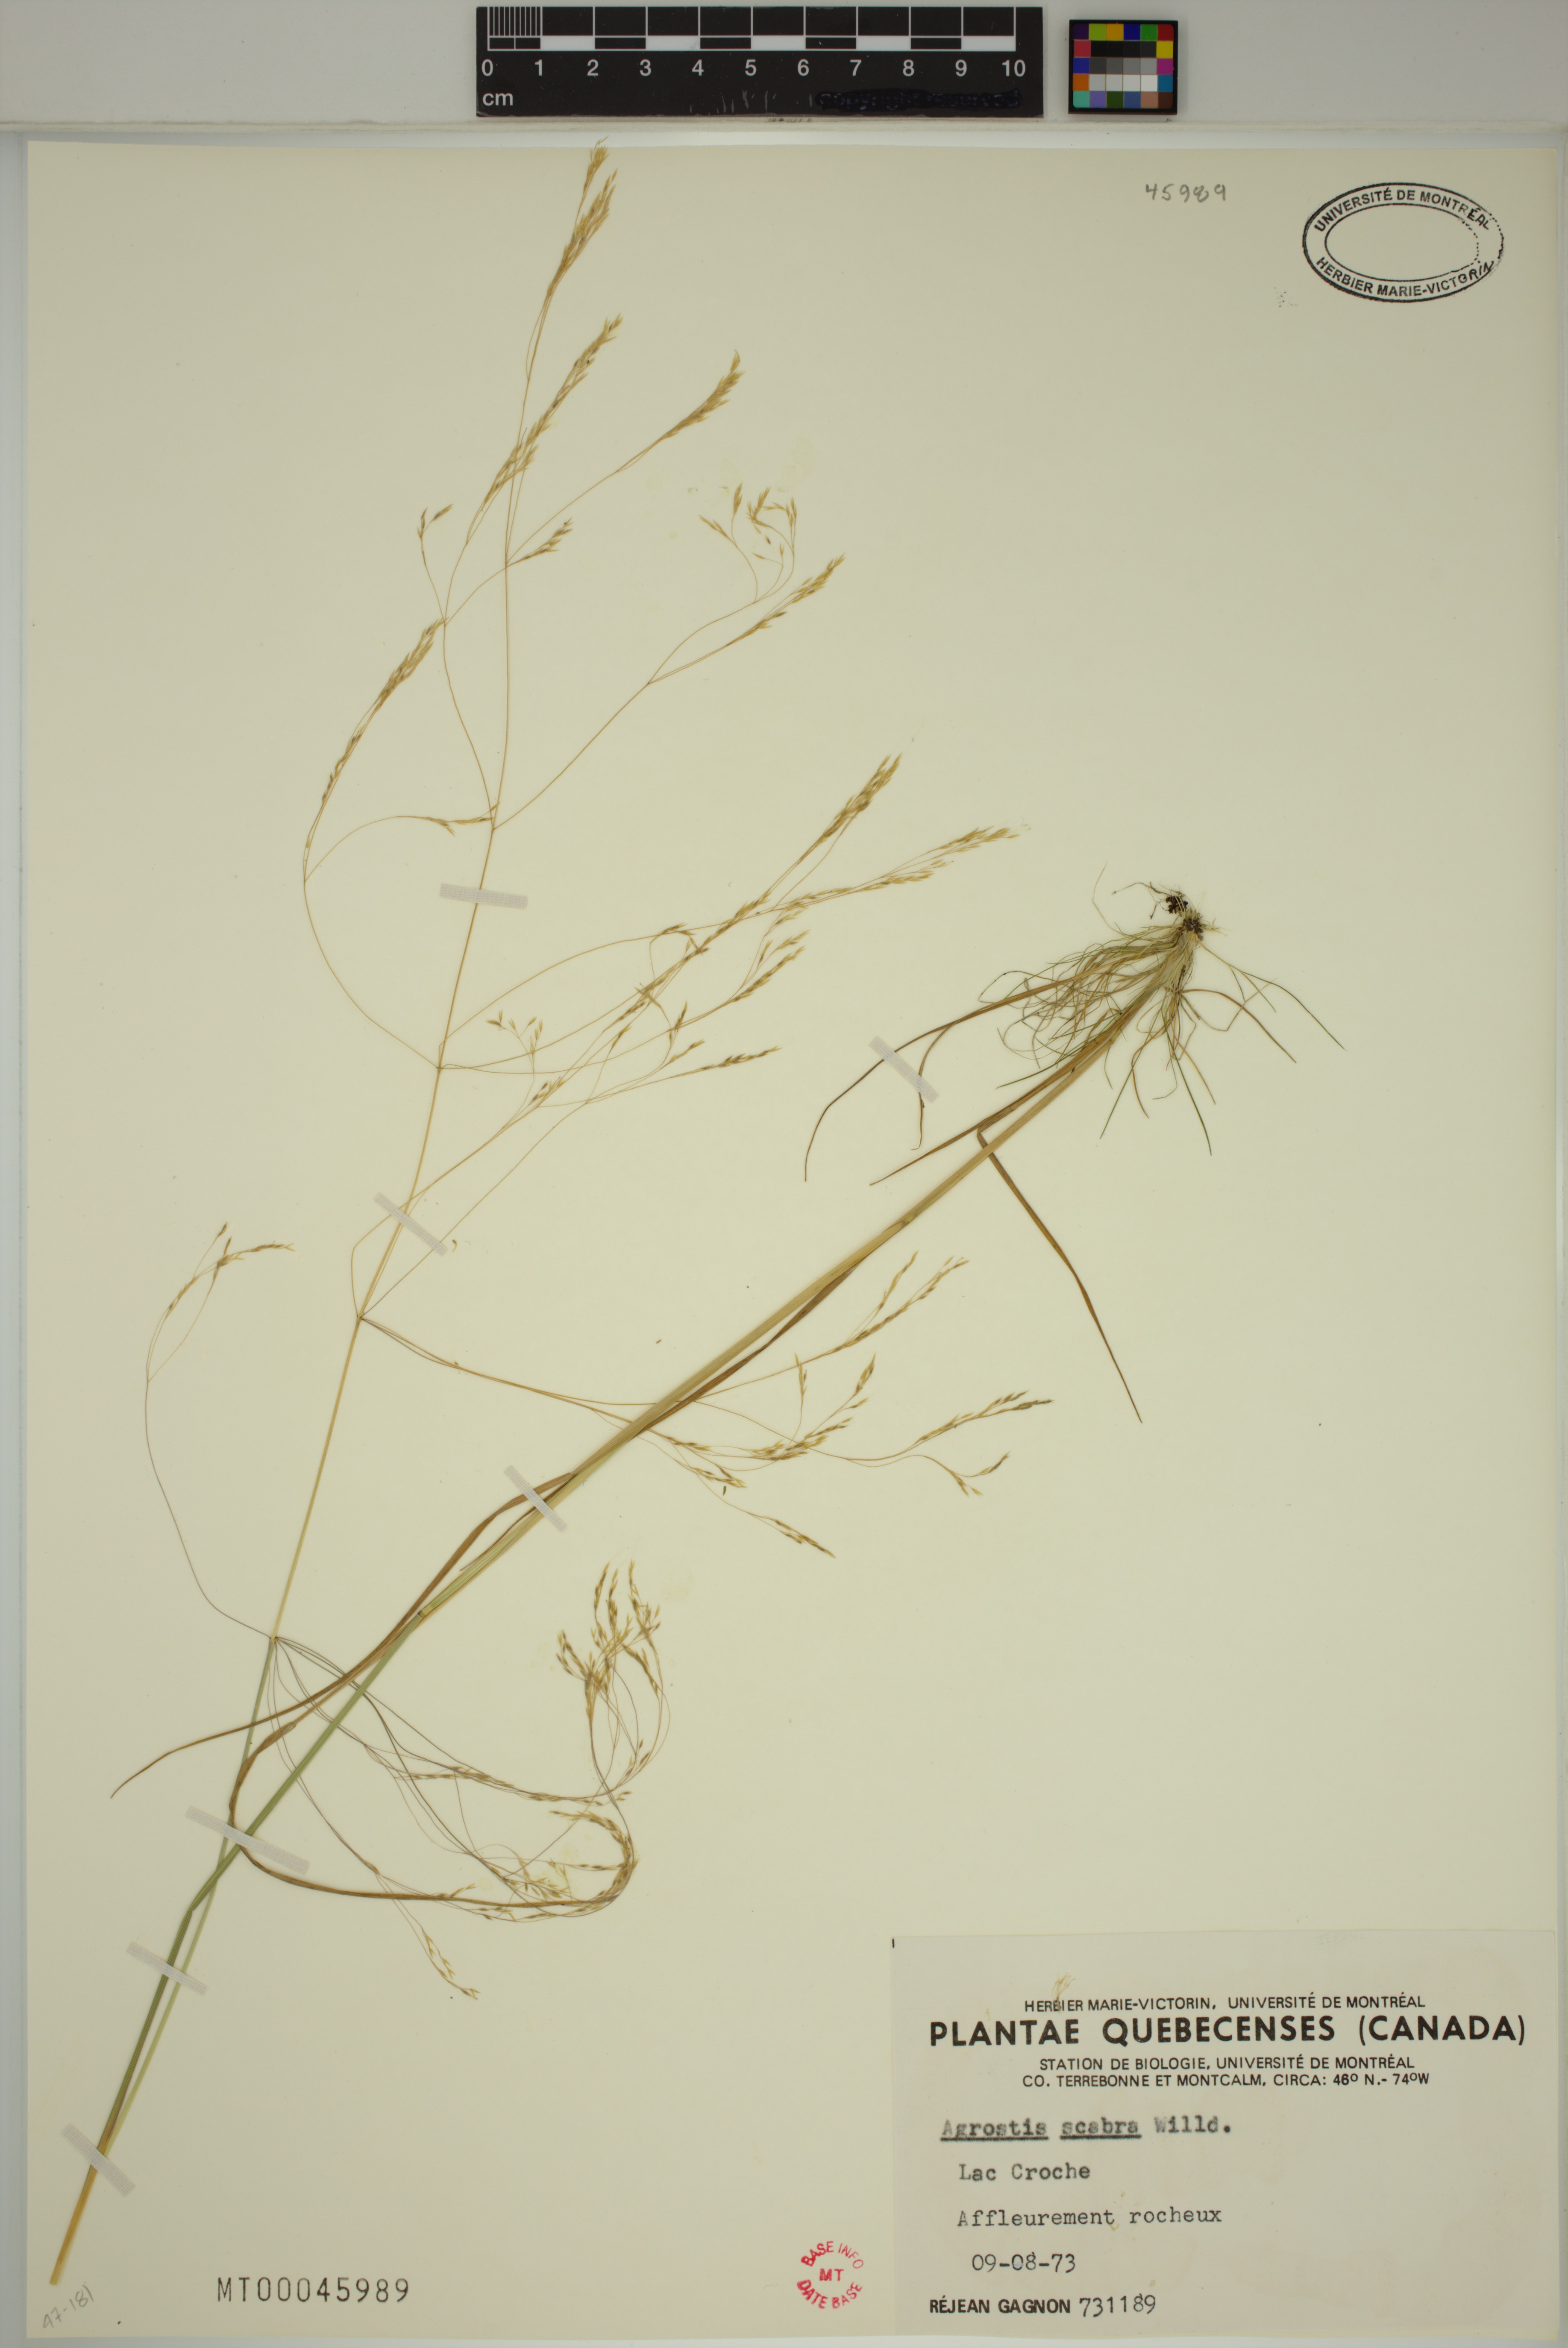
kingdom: Plantae
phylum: Tracheophyta
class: Liliopsida
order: Poales
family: Poaceae
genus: Agrostis
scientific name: Agrostis scabra
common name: Rough bent
